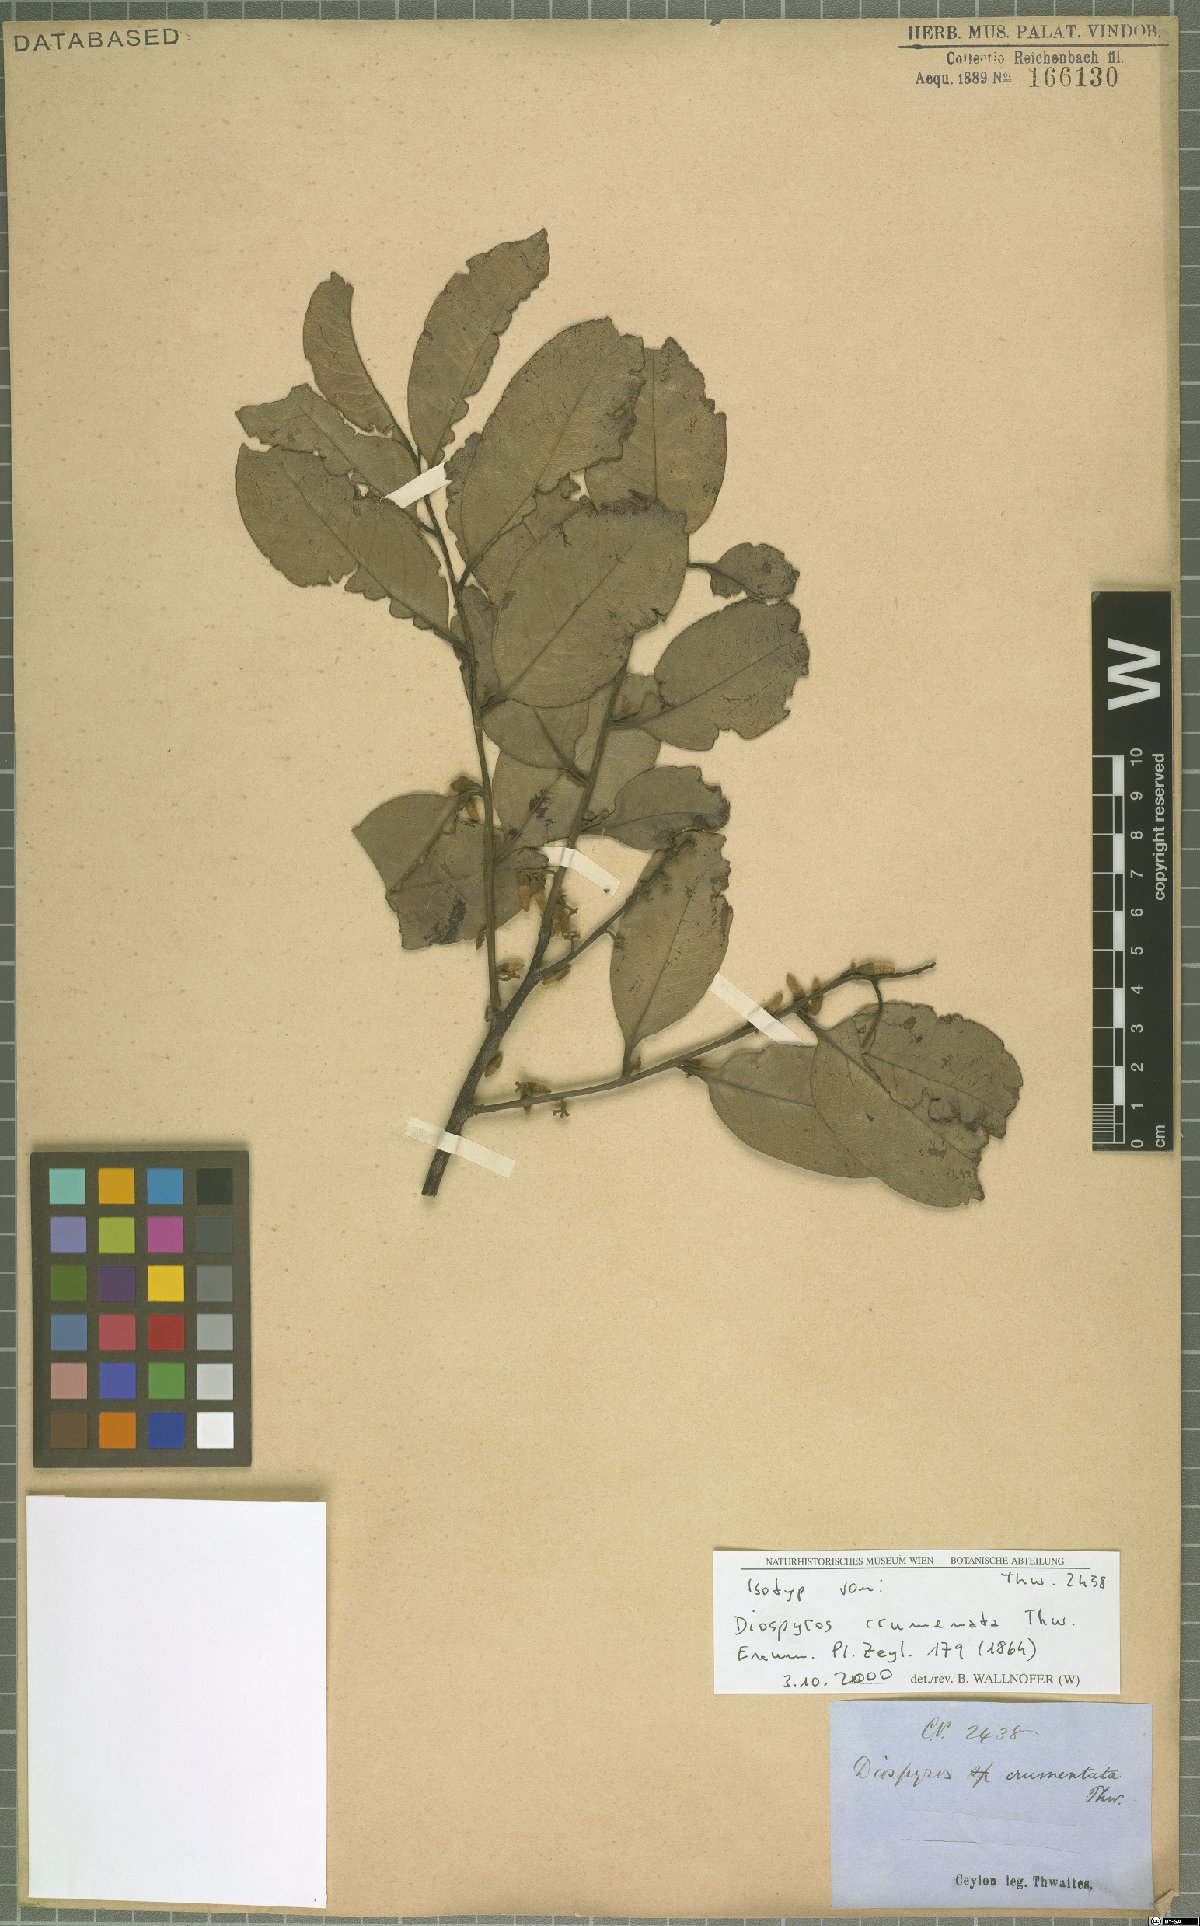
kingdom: Plantae
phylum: Tracheophyta
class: Magnoliopsida
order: Ericales
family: Ebenaceae
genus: Diospyros
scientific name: Diospyros crumenata
